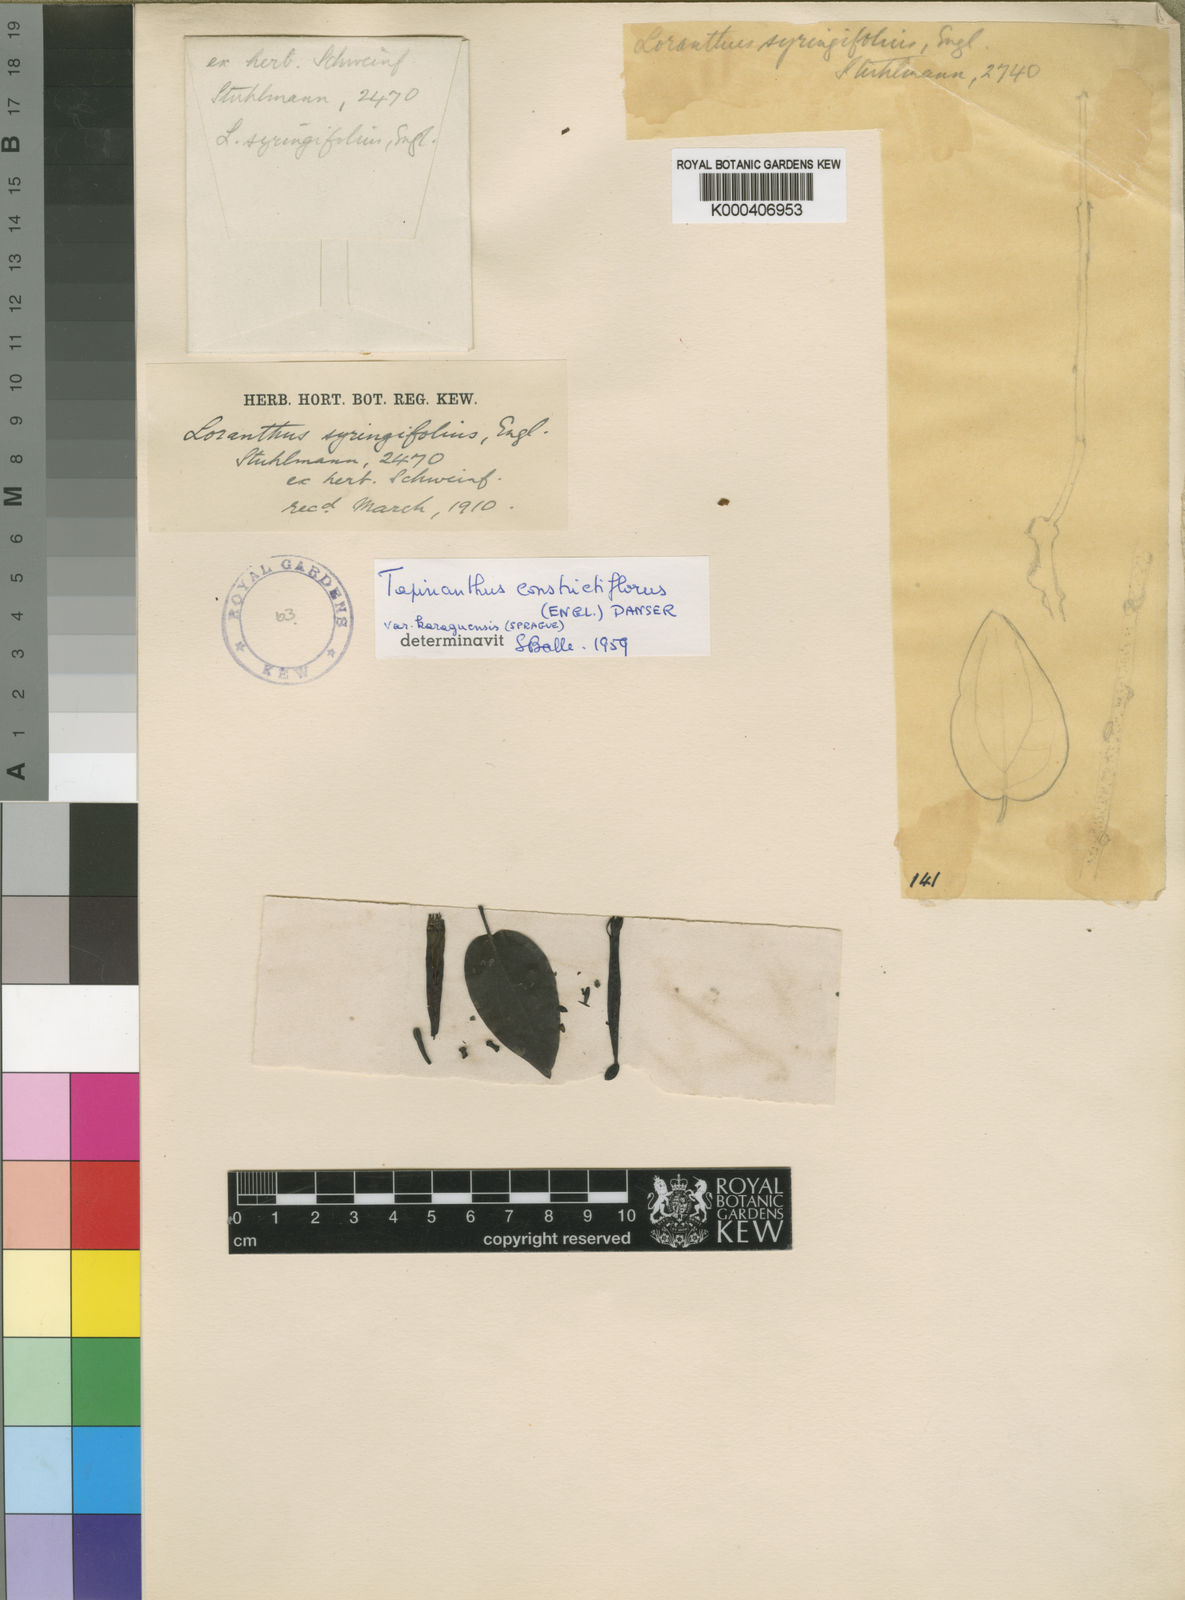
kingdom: Plantae
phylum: Tracheophyta
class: Magnoliopsida
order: Santalales
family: Loranthaceae
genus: Tapinanthus
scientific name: Tapinanthus constrictiflorus
